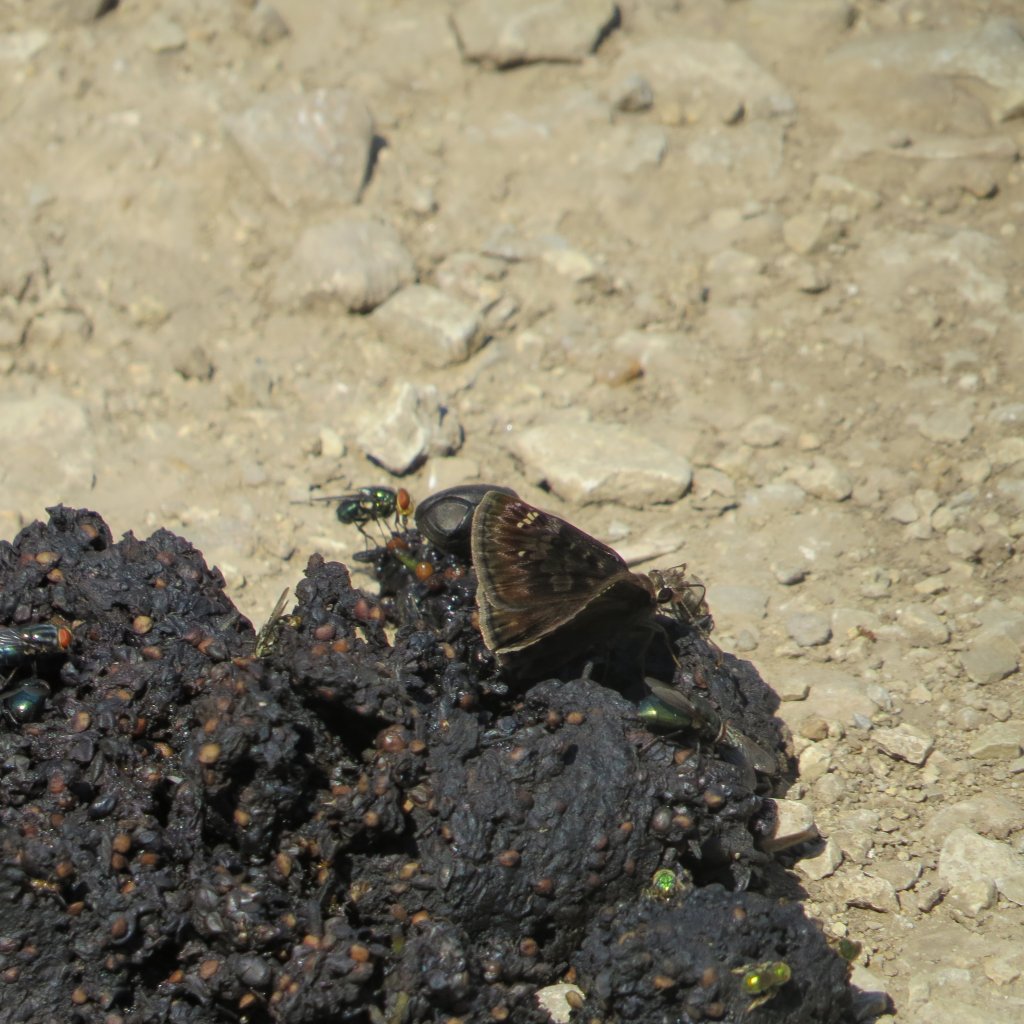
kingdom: Animalia
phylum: Arthropoda
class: Insecta
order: Lepidoptera
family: Hesperiidae
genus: Gesta
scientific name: Gesta
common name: Horace's Duskywing
